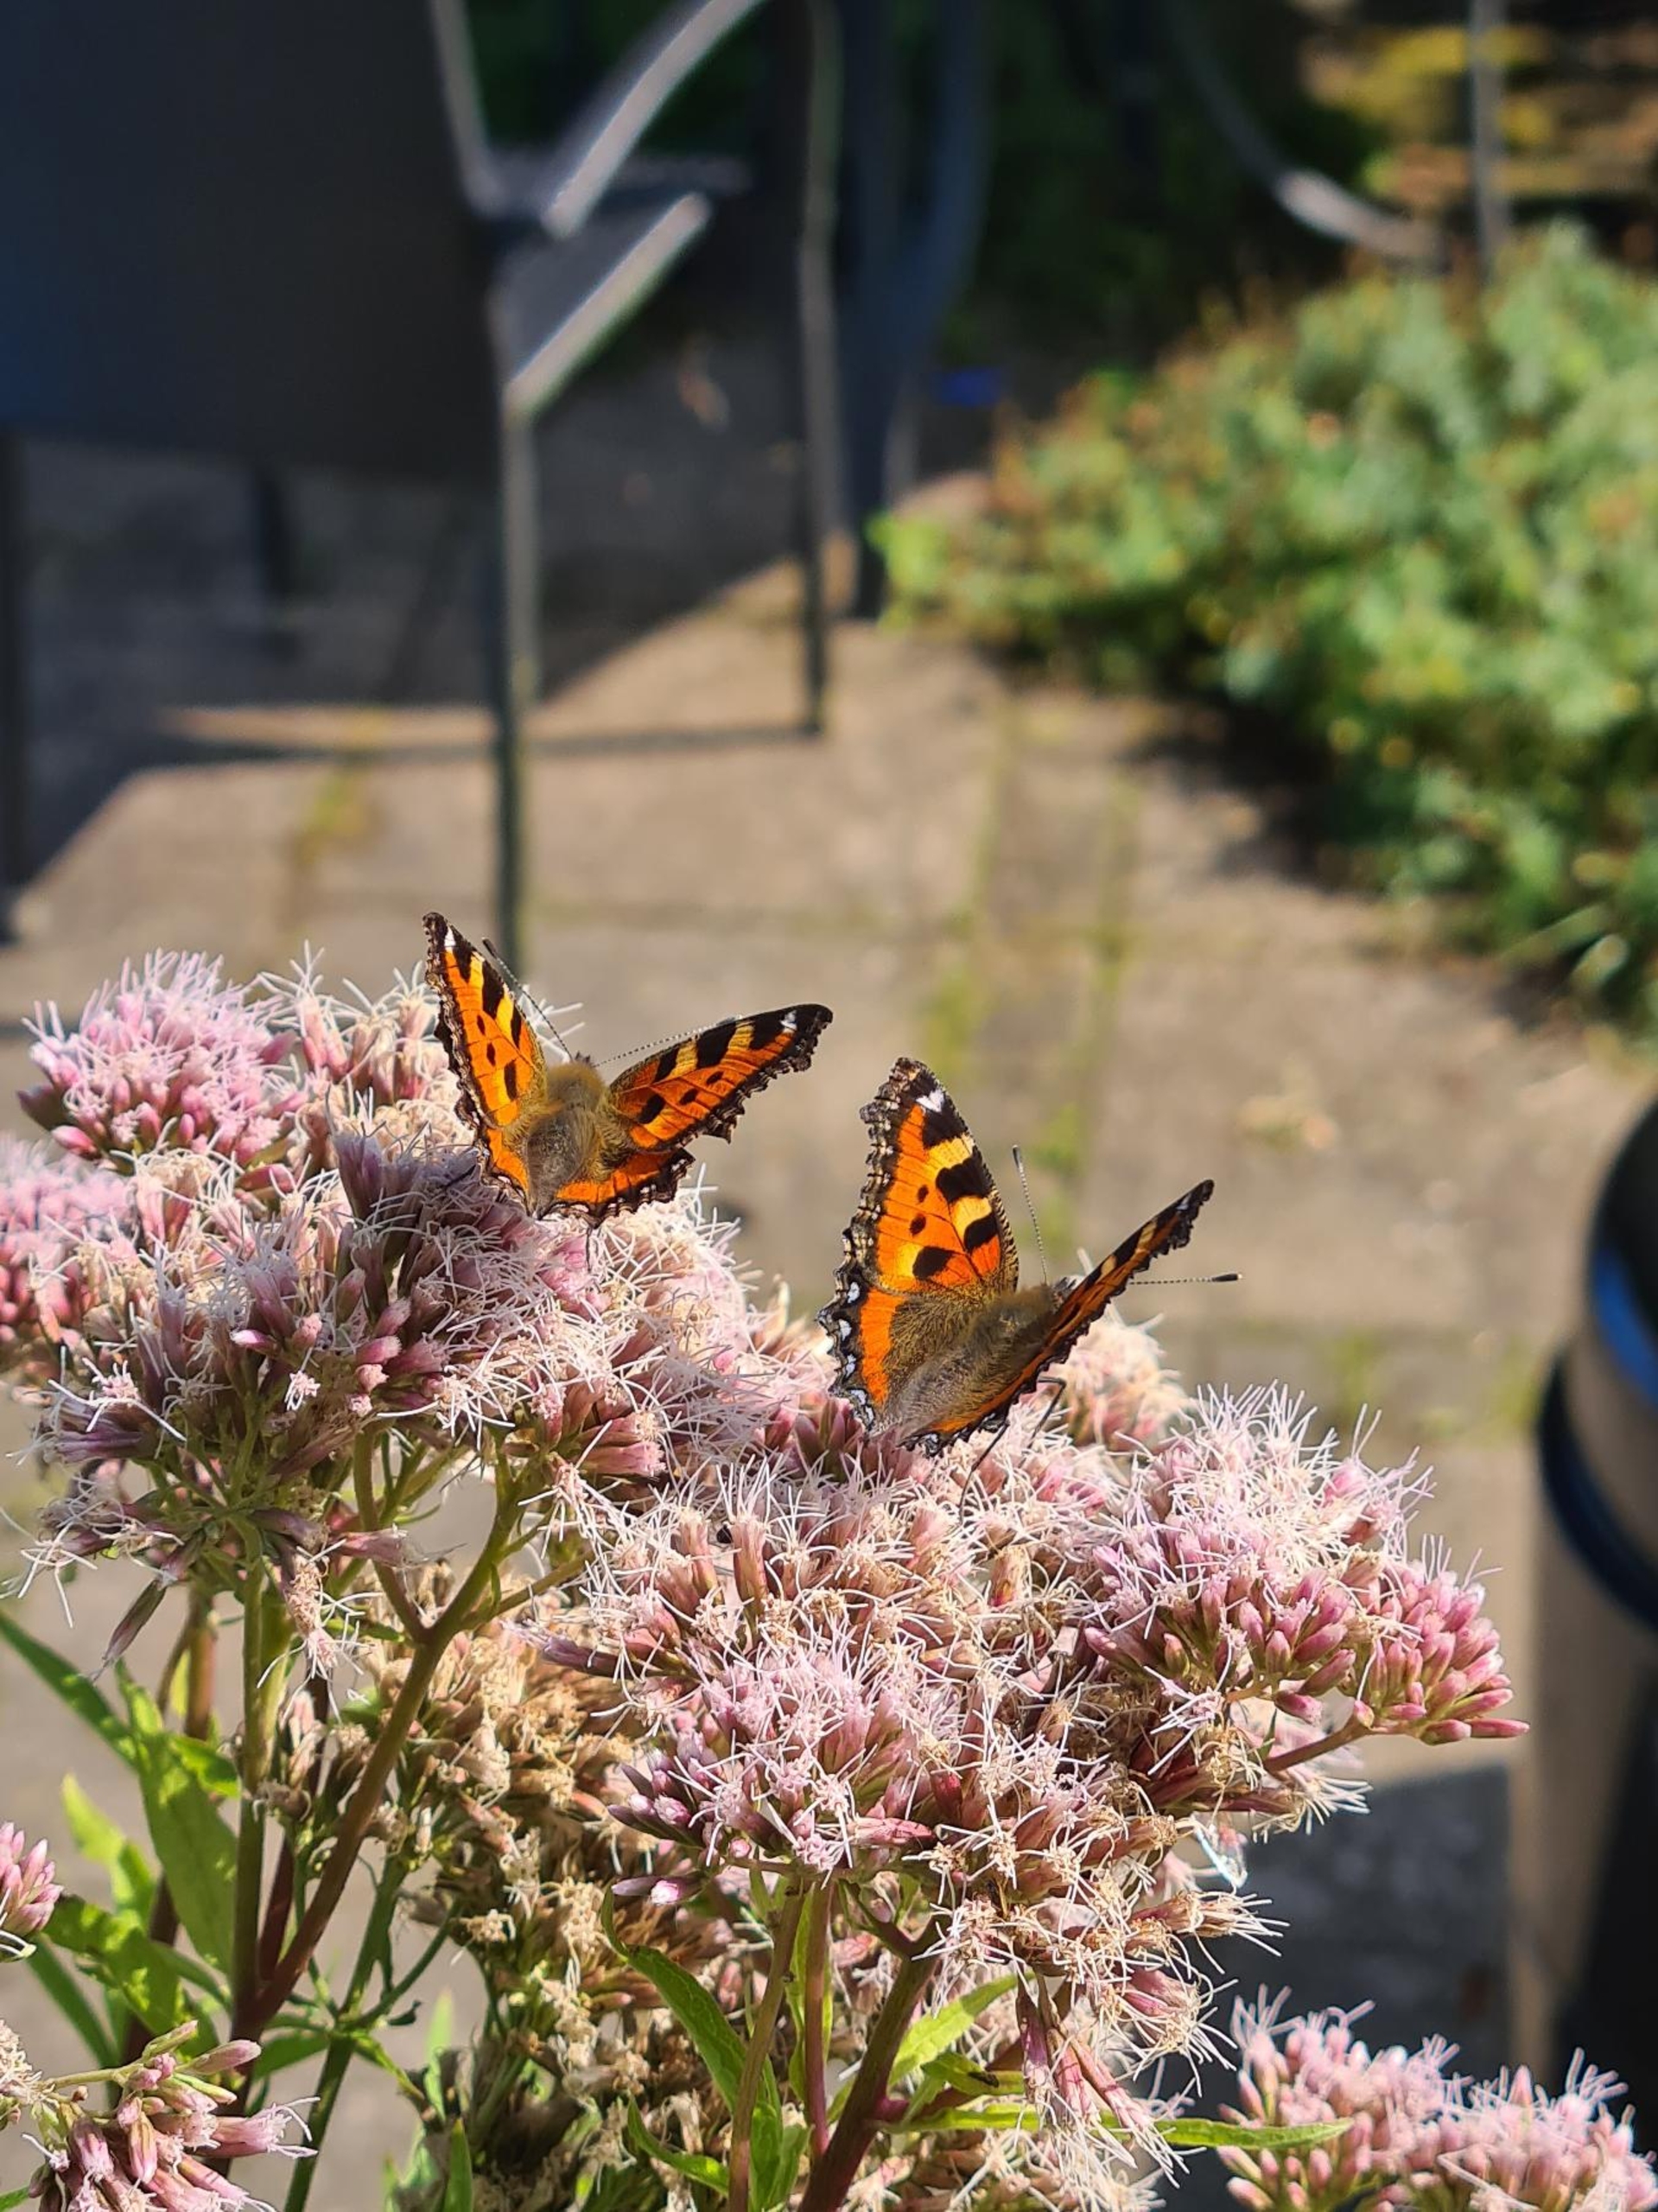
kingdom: Animalia
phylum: Arthropoda
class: Insecta
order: Lepidoptera
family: Nymphalidae
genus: Aglais
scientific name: Aglais urticae
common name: Nældens takvinge
